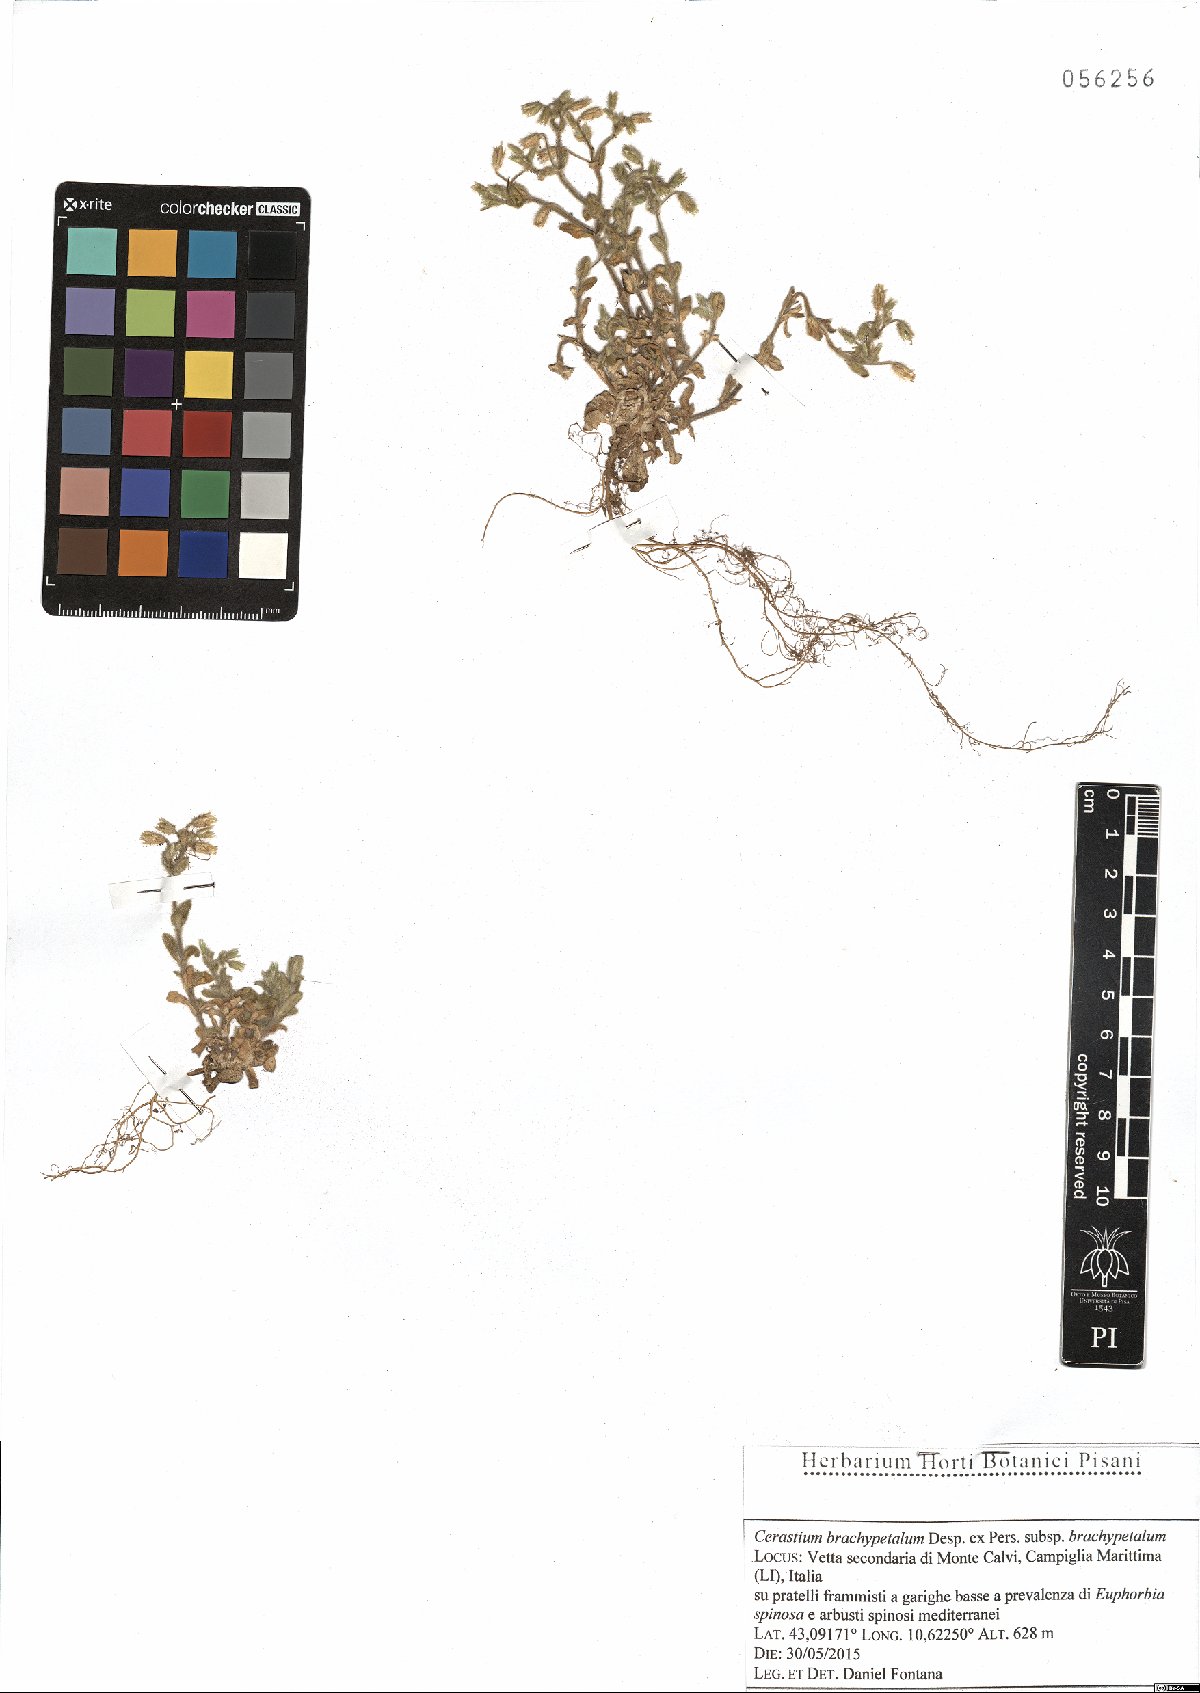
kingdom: Plantae
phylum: Tracheophyta
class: Magnoliopsida
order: Caryophyllales
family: Caryophyllaceae
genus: Cerastium
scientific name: Cerastium brachypetalum
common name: Grey mouse-ear
